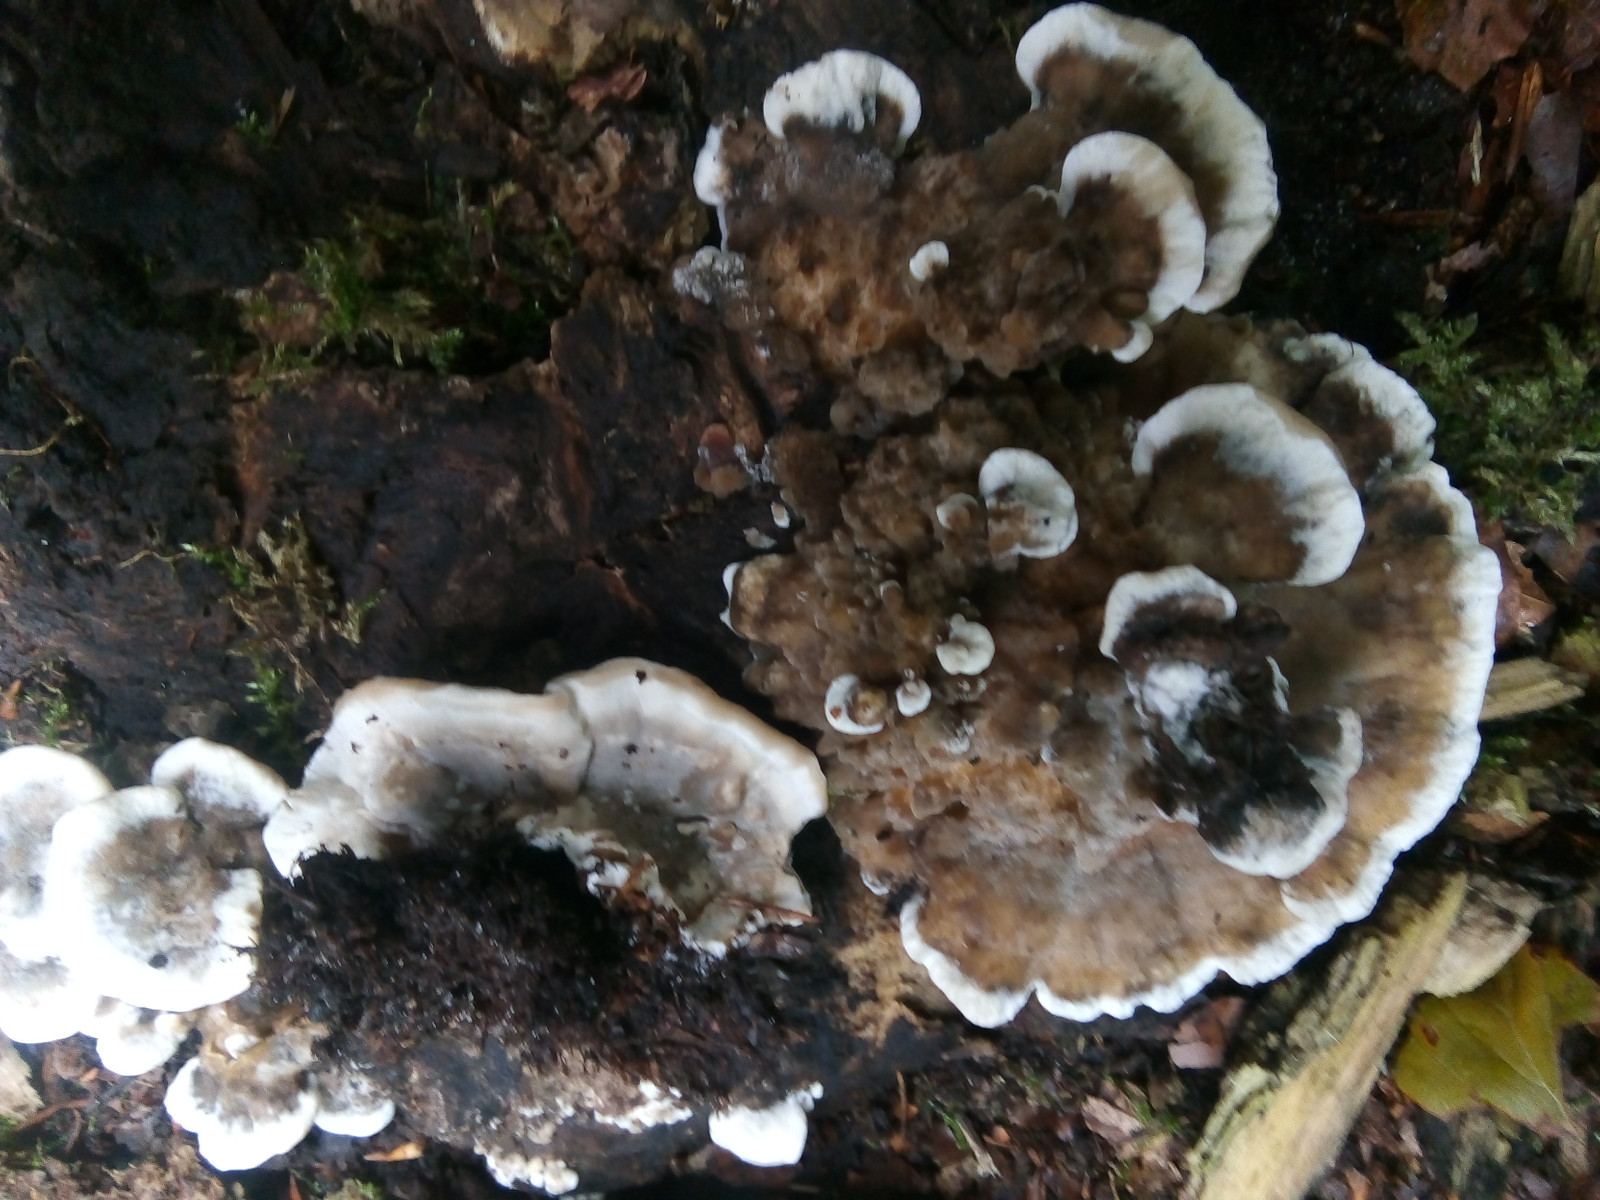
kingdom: Fungi
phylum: Basidiomycota
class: Agaricomycetes
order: Polyporales
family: Phanerochaetaceae
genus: Bjerkandera
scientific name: Bjerkandera adusta
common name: sveden sodporesvamp
